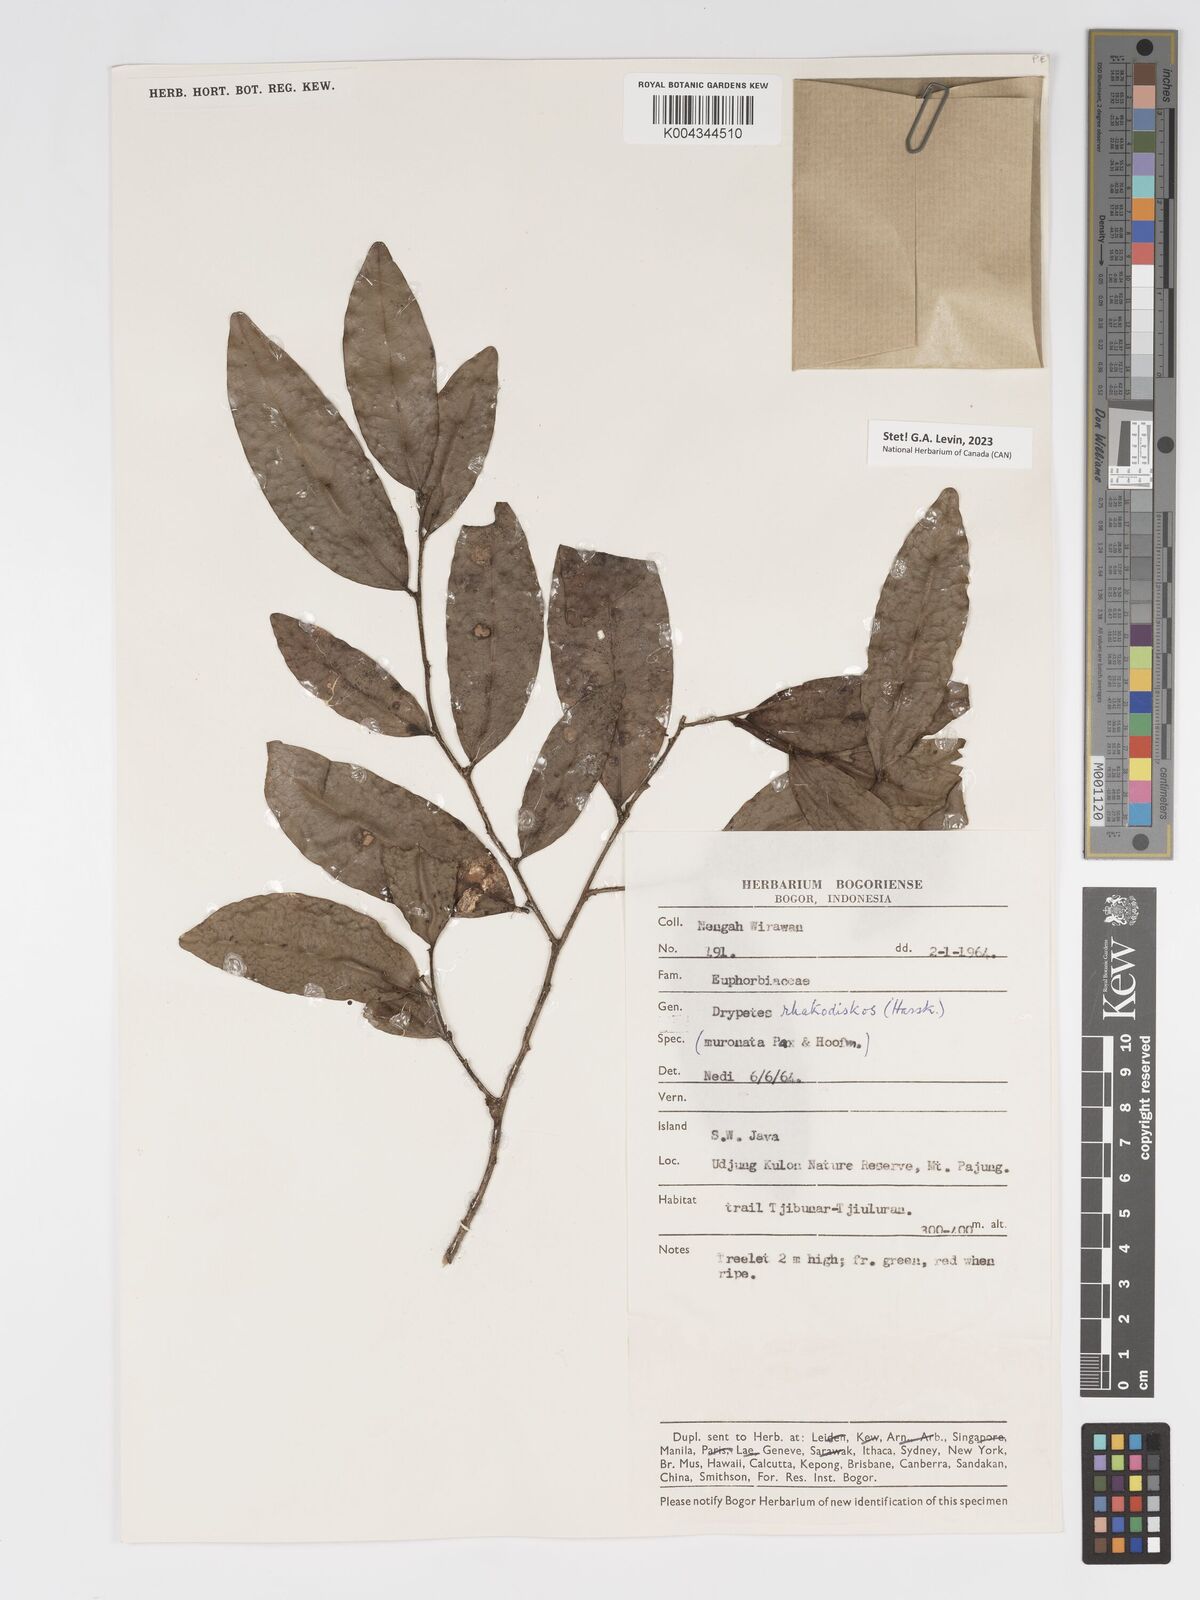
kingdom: Plantae
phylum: Tracheophyta
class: Magnoliopsida
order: Malpighiales
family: Putranjivaceae
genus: Drypetes
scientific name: Drypetes rhakodiskos
